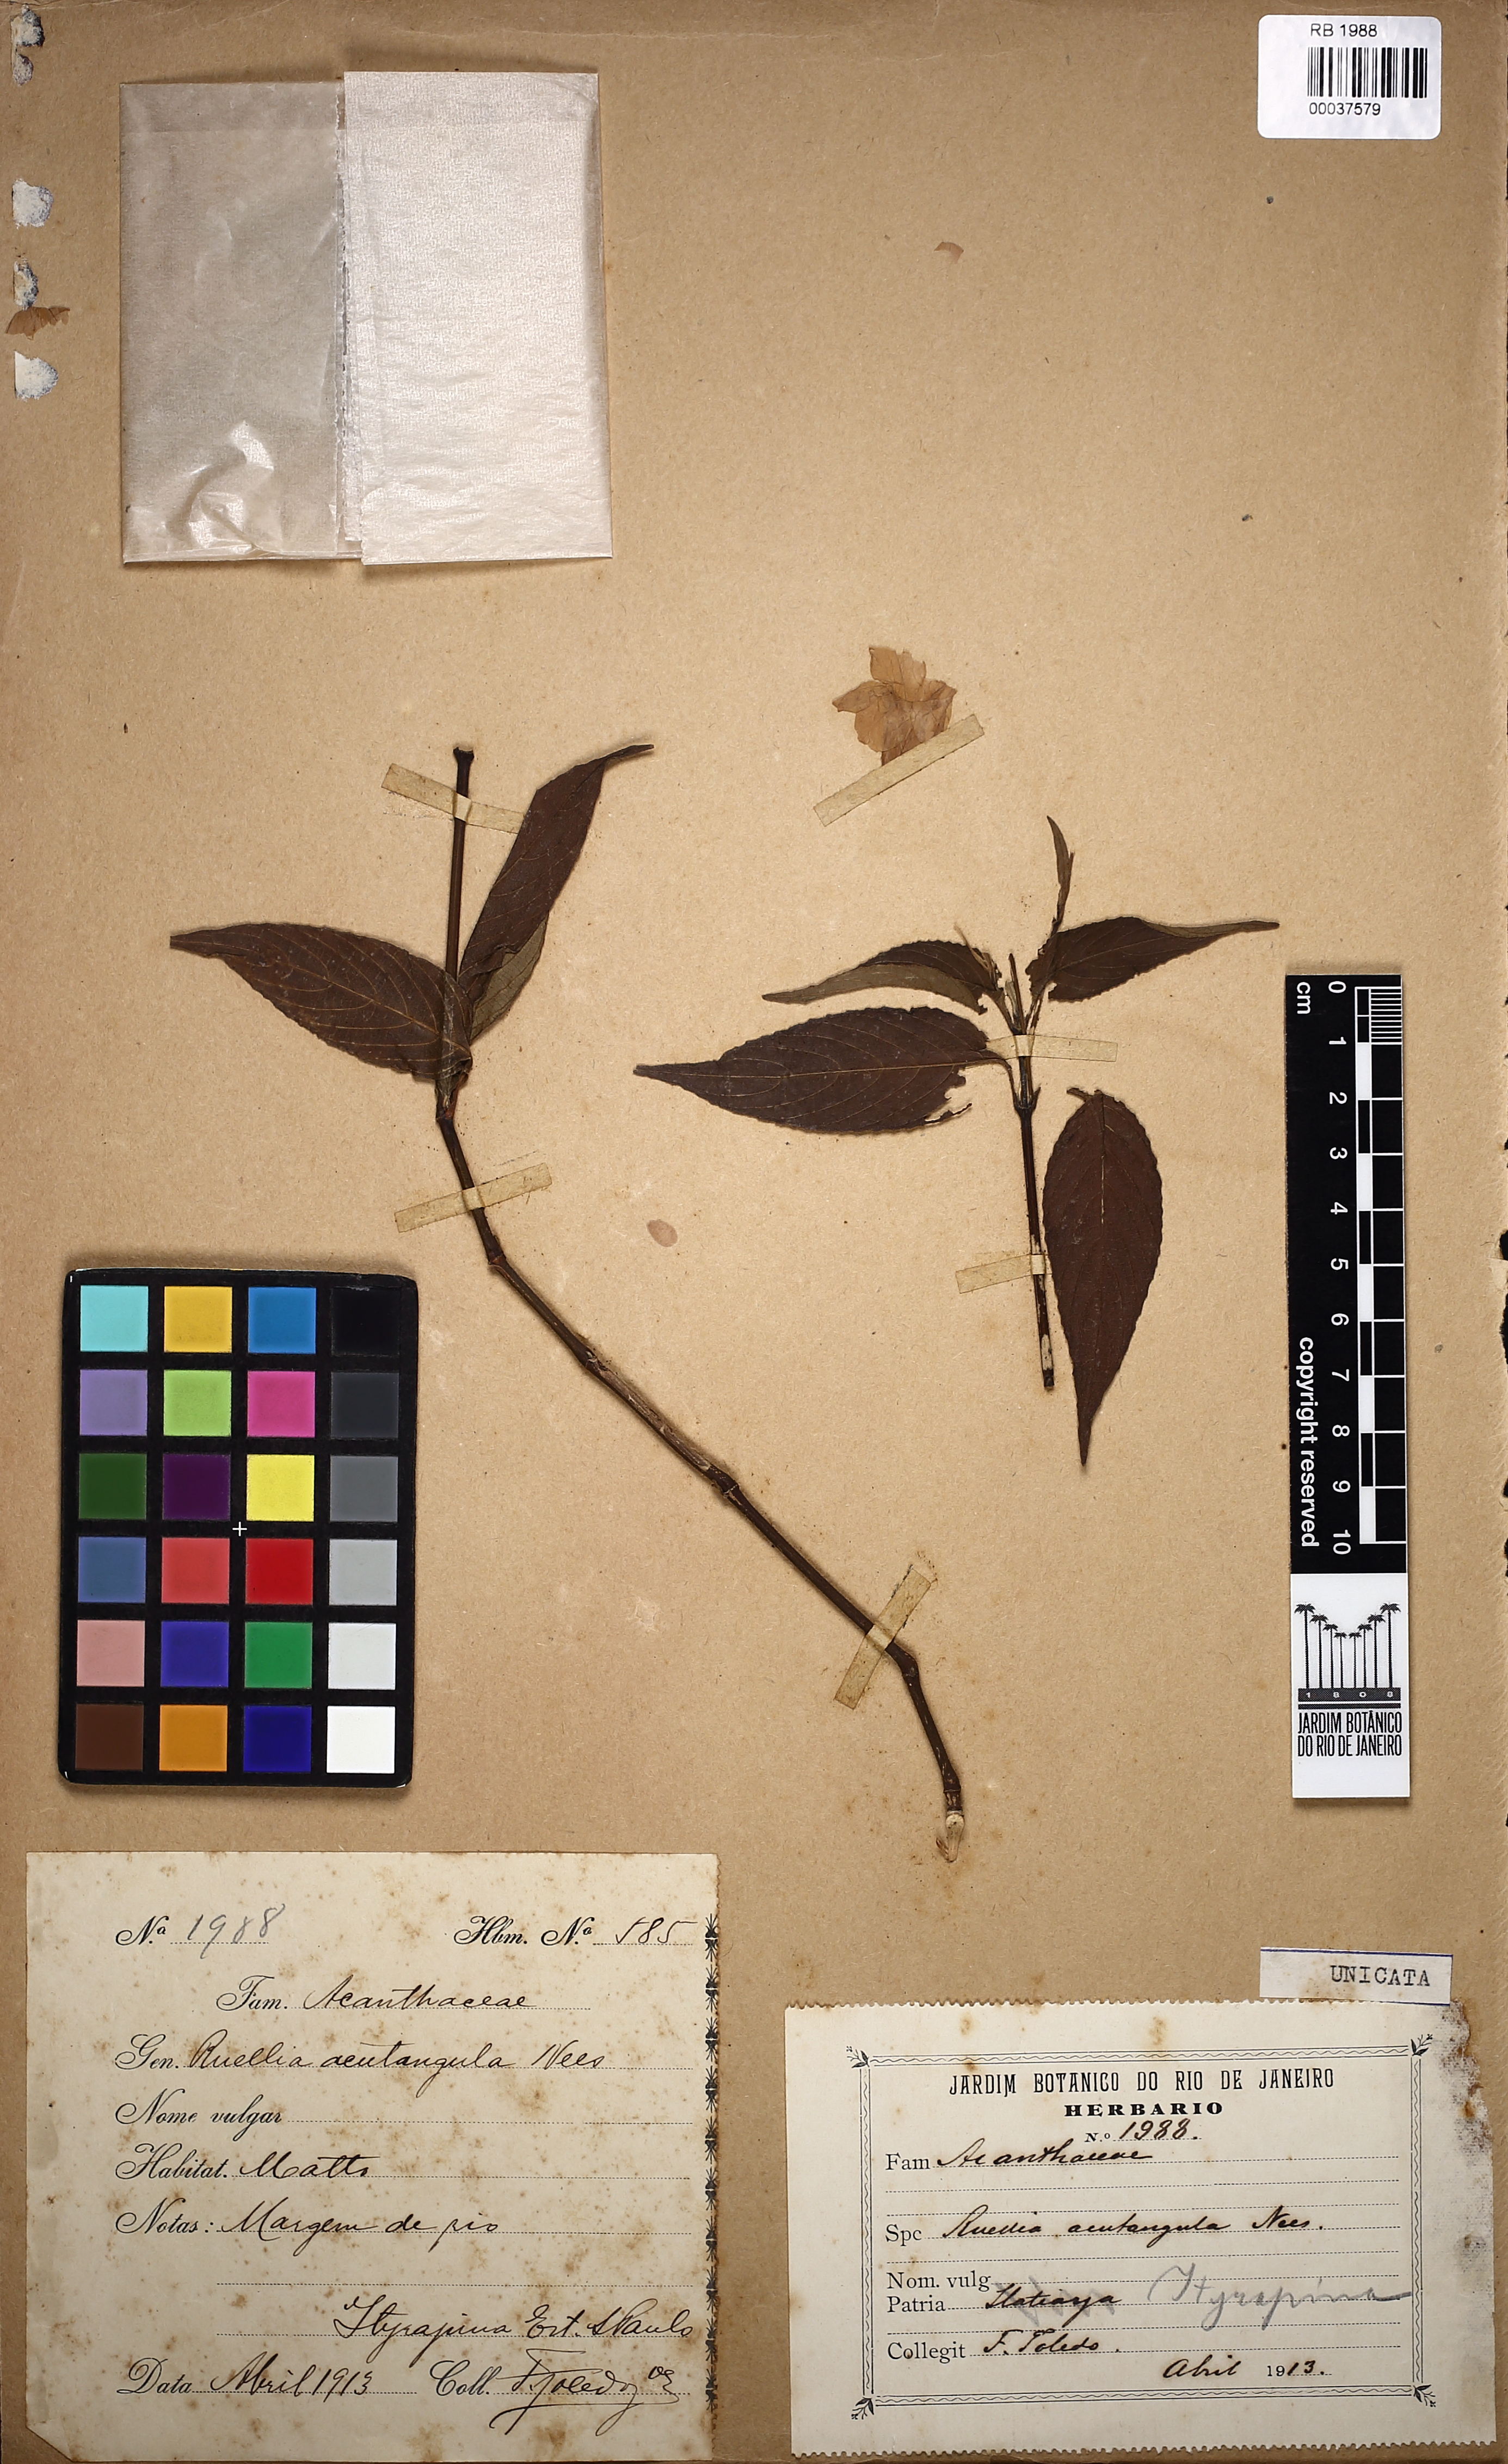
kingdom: Plantae
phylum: Tracheophyta
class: Magnoliopsida
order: Lamiales
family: Acanthaceae
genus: Ruellia
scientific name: Ruellia jussieuoides
